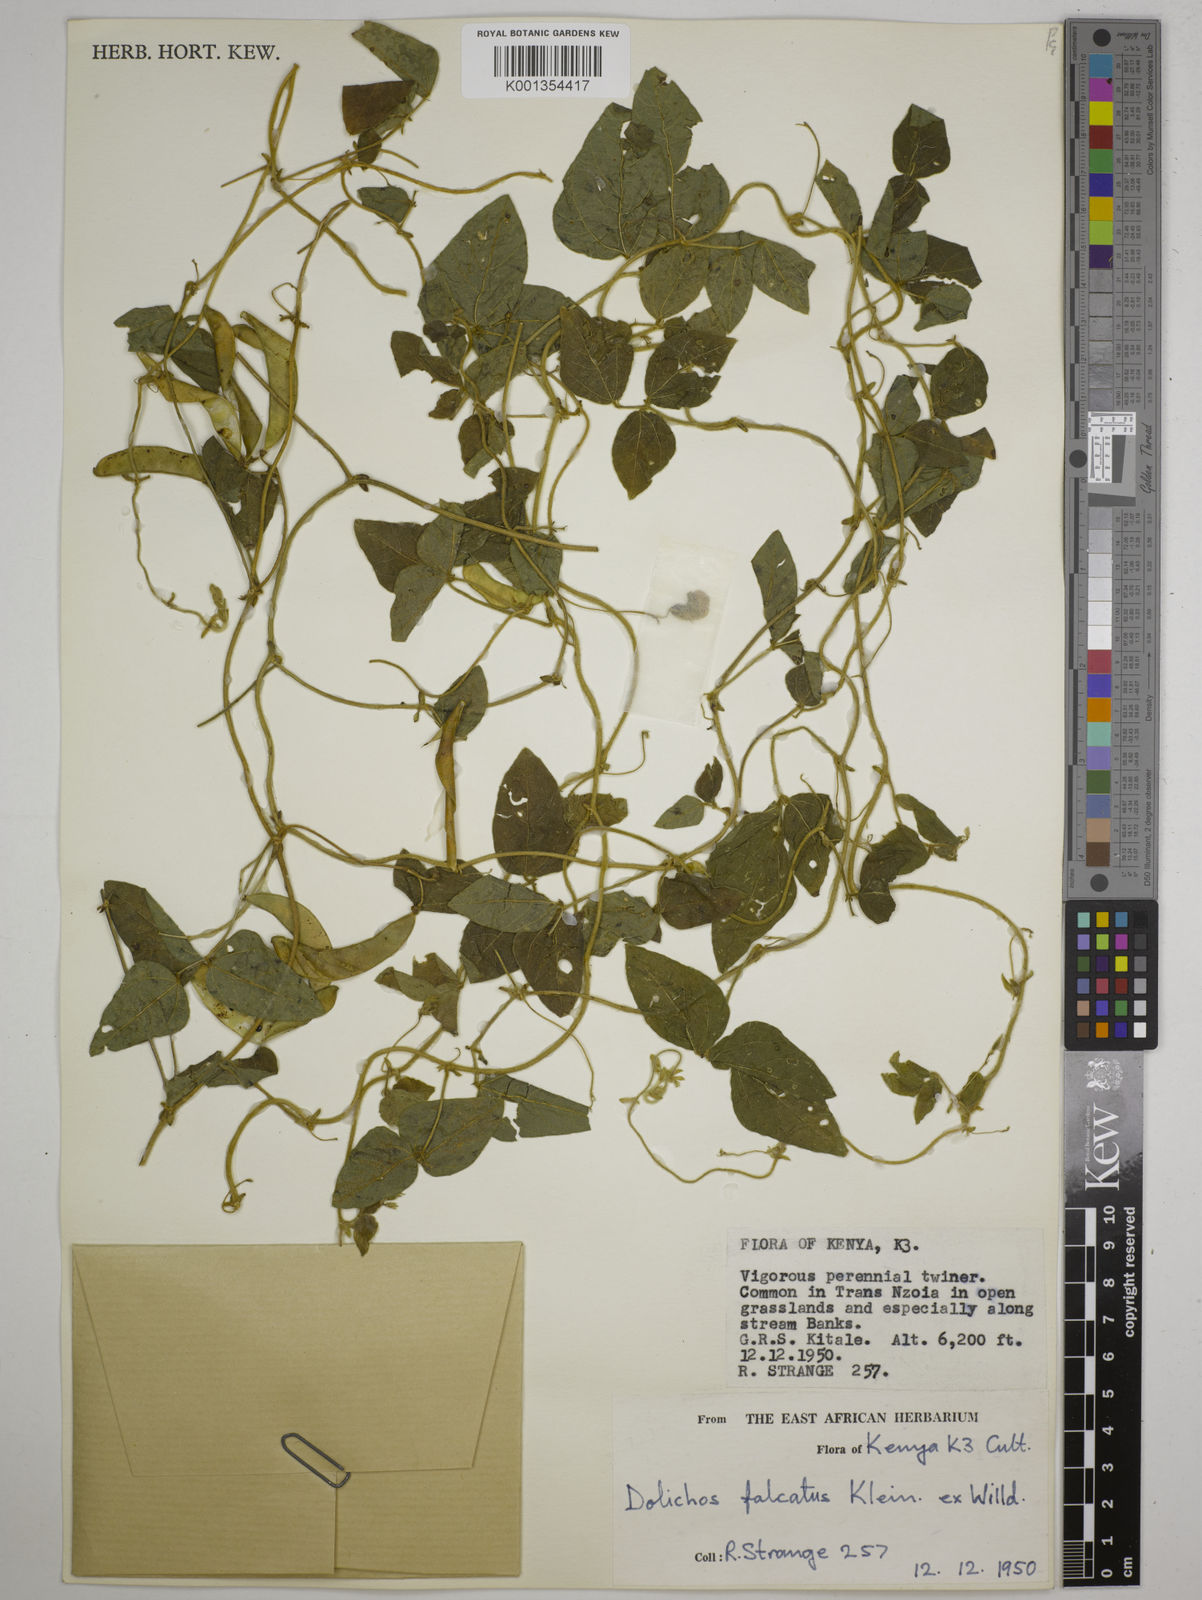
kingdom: Plantae
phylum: Tracheophyta
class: Magnoliopsida
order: Fabales
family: Fabaceae
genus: Dolichos
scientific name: Dolichos trilobus
